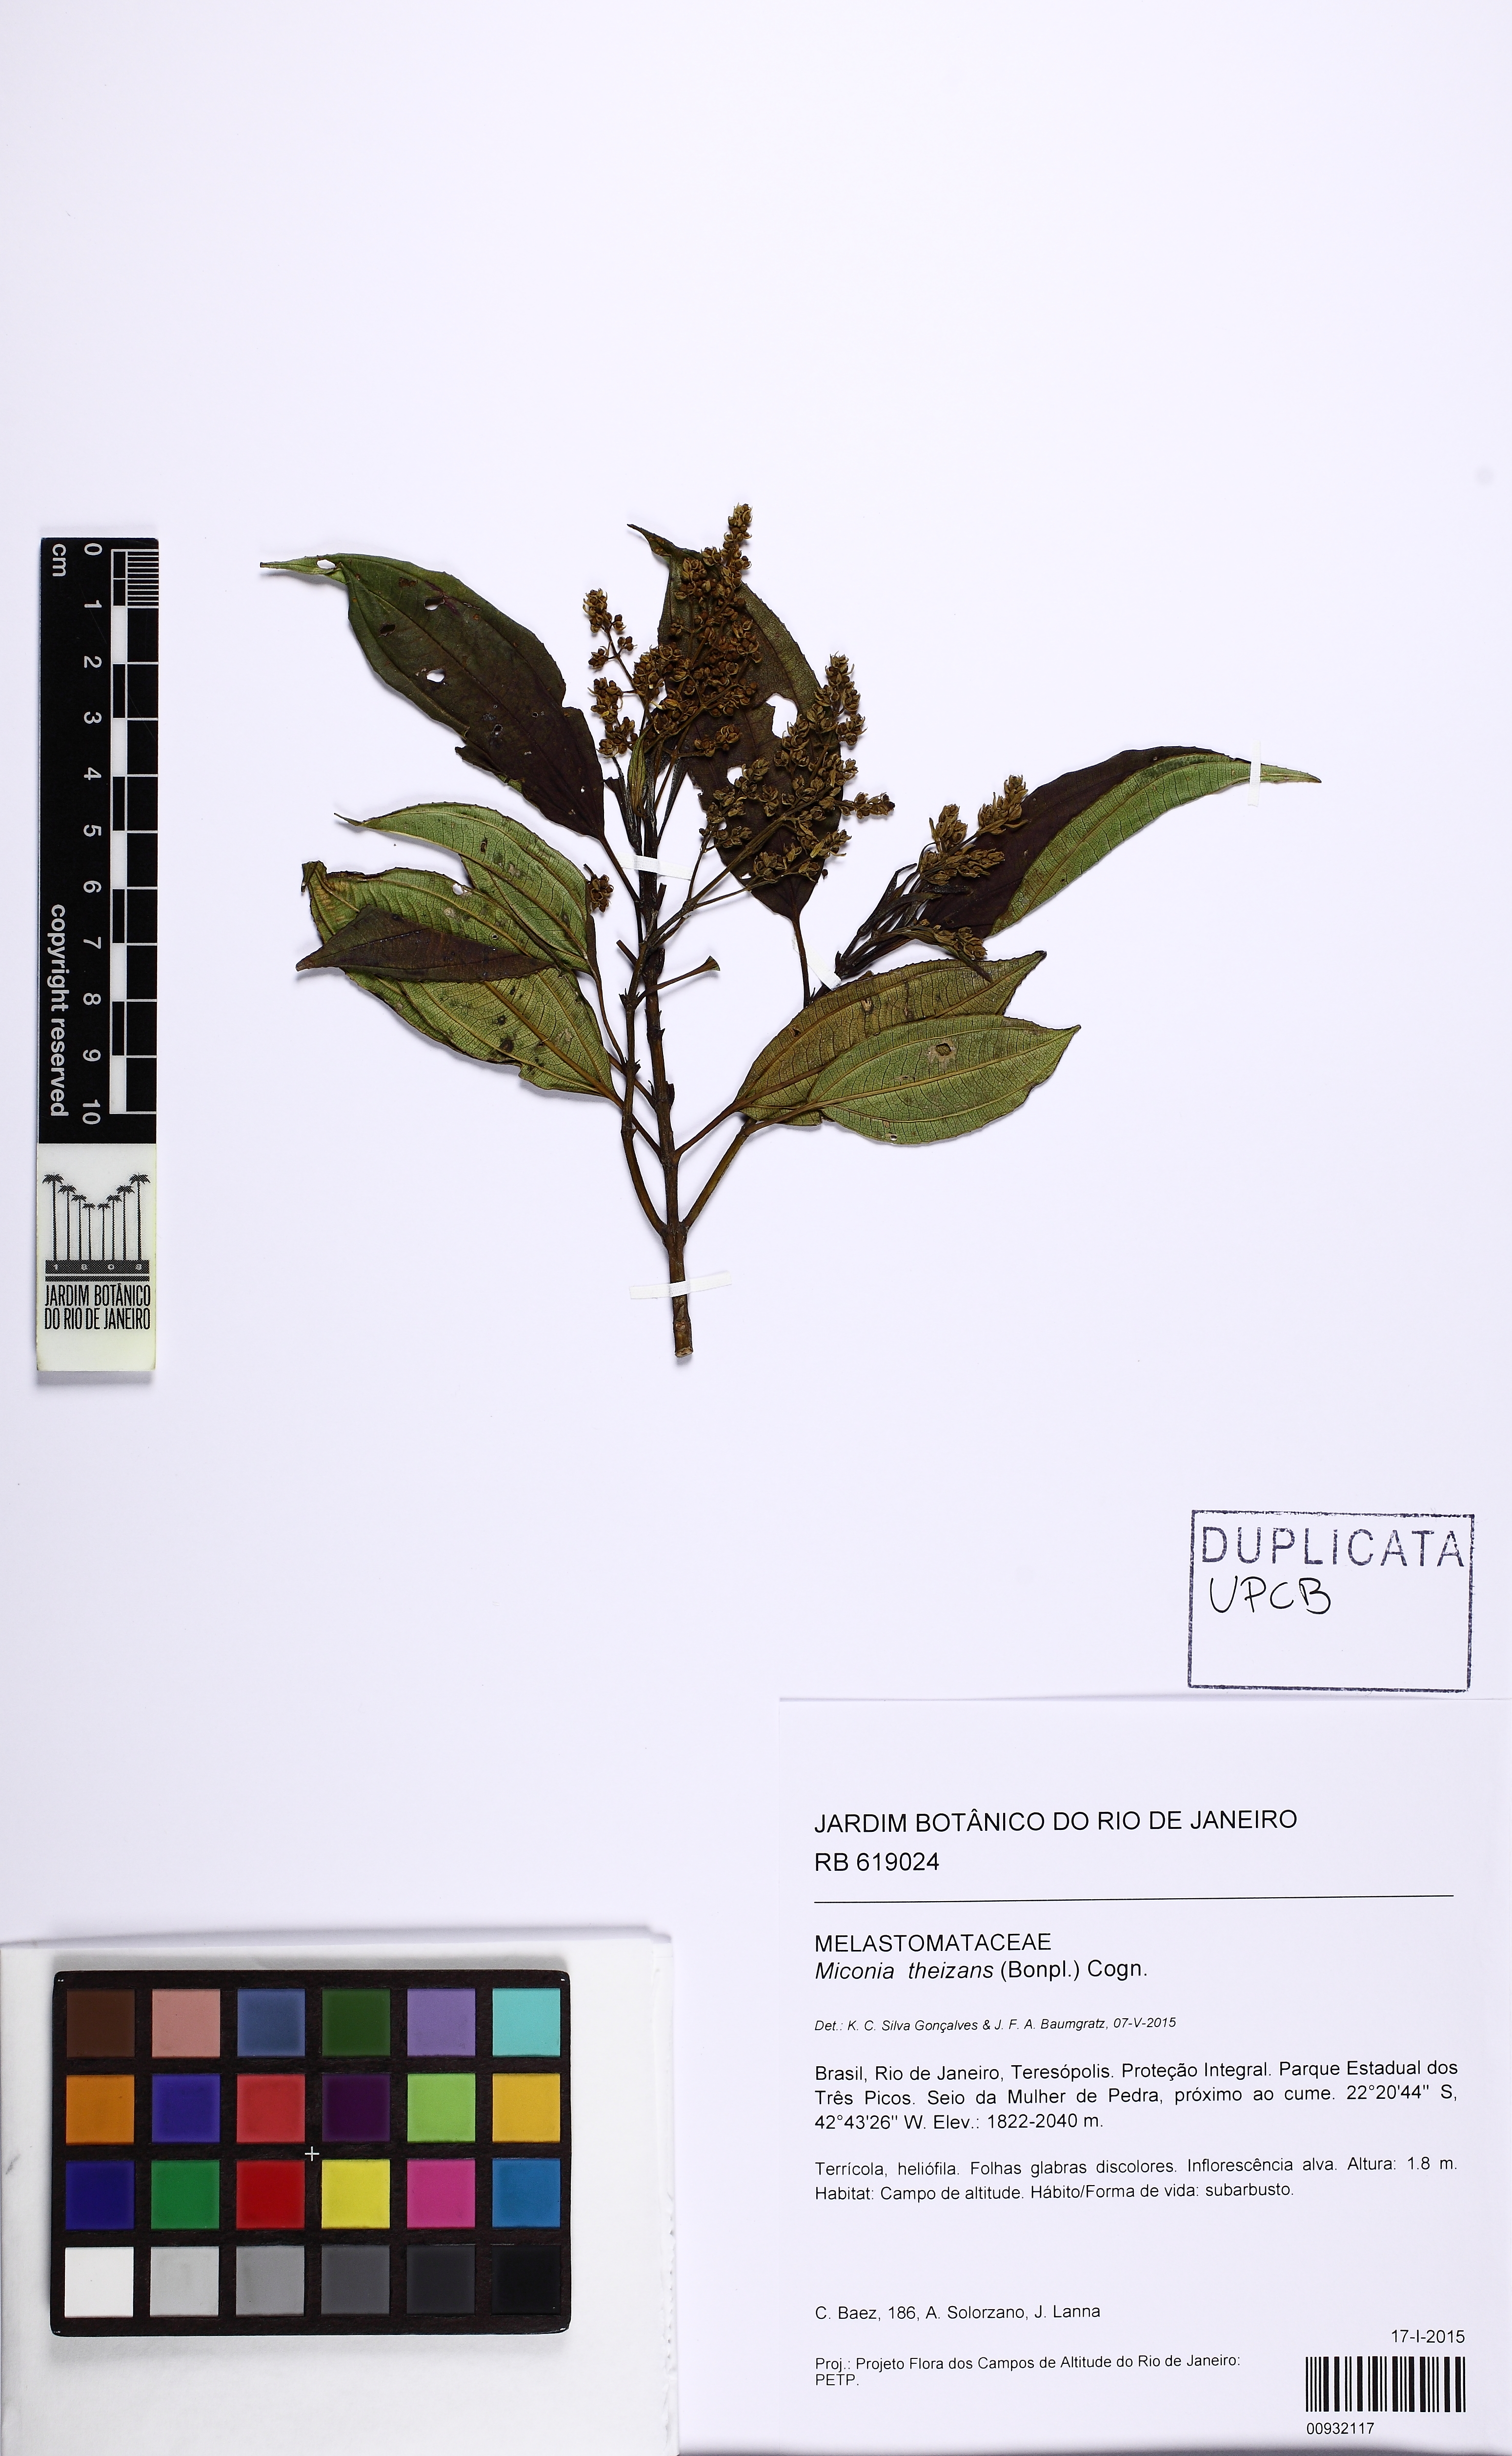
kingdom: Plantae
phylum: Tracheophyta
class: Magnoliopsida
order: Myrtales
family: Melastomataceae
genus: Miconia
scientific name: Miconia theizans
